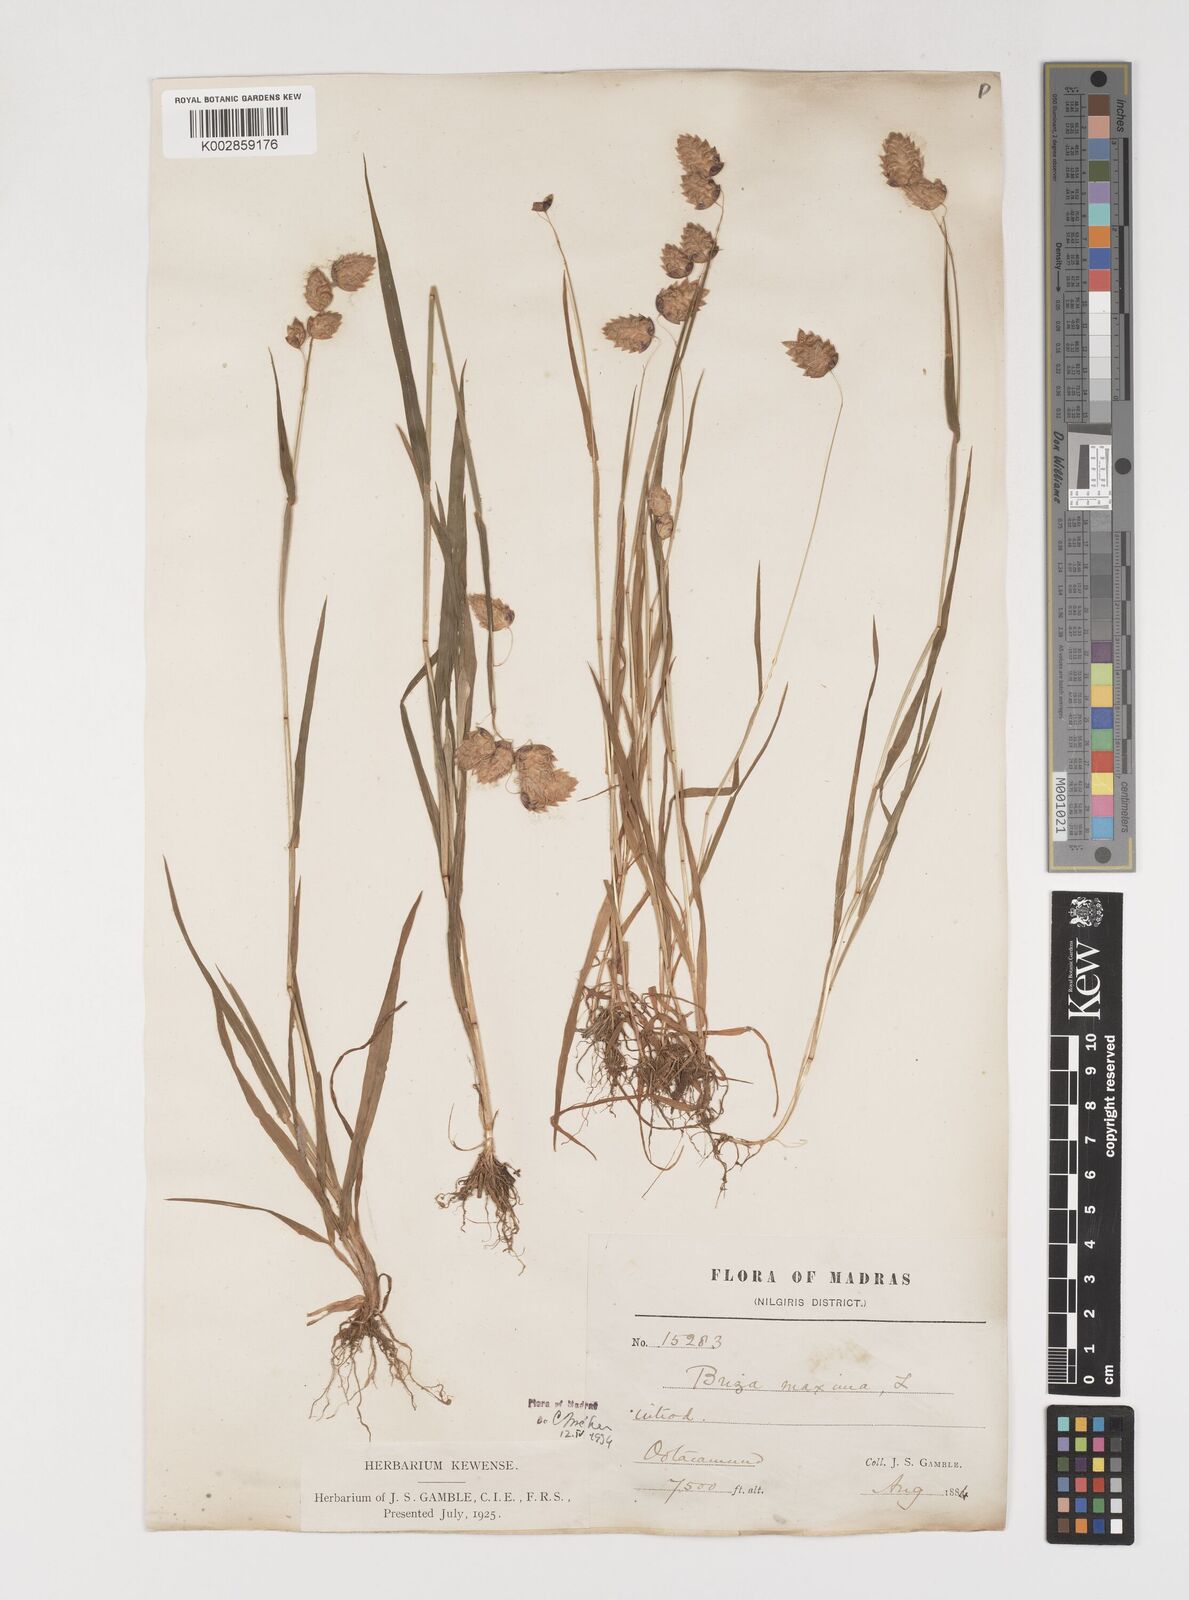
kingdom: Plantae
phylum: Tracheophyta
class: Liliopsida
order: Poales
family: Poaceae
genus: Briza
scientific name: Briza maxima
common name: Big quakinggrass
